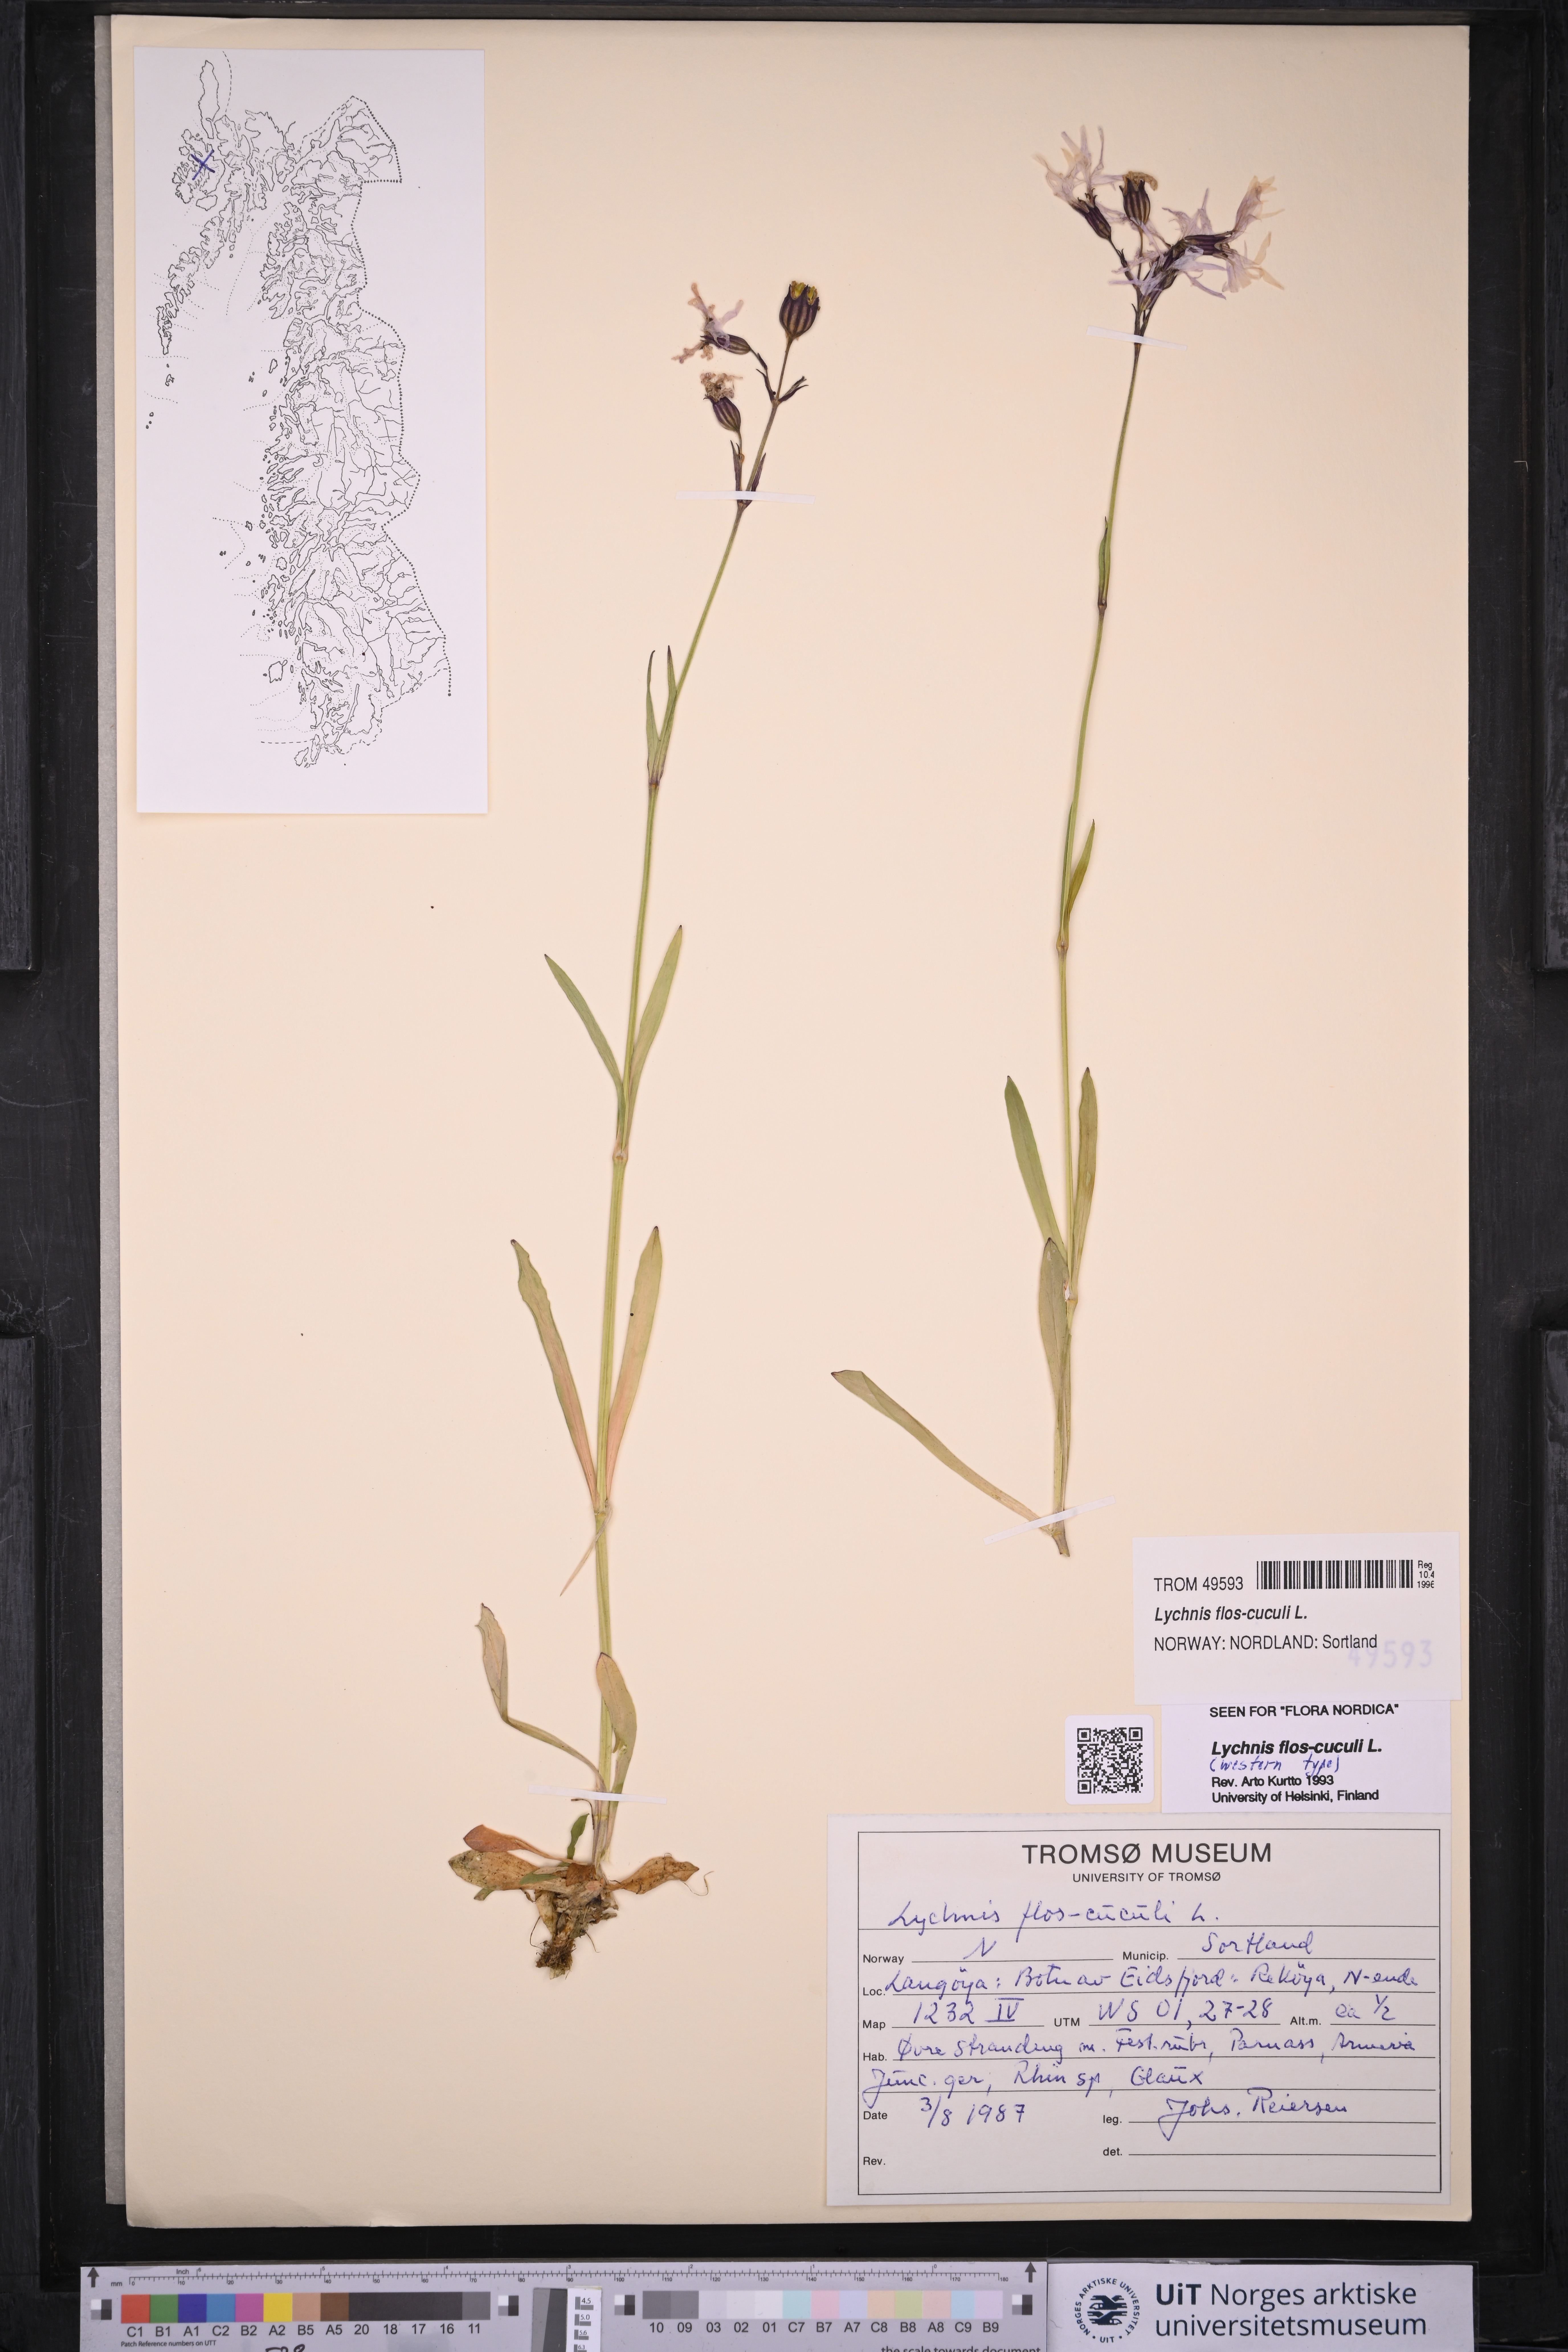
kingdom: Plantae
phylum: Tracheophyta
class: Magnoliopsida
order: Caryophyllales
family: Caryophyllaceae
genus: Silene
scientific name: Silene flos-cuculi
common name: Ragged-robin
